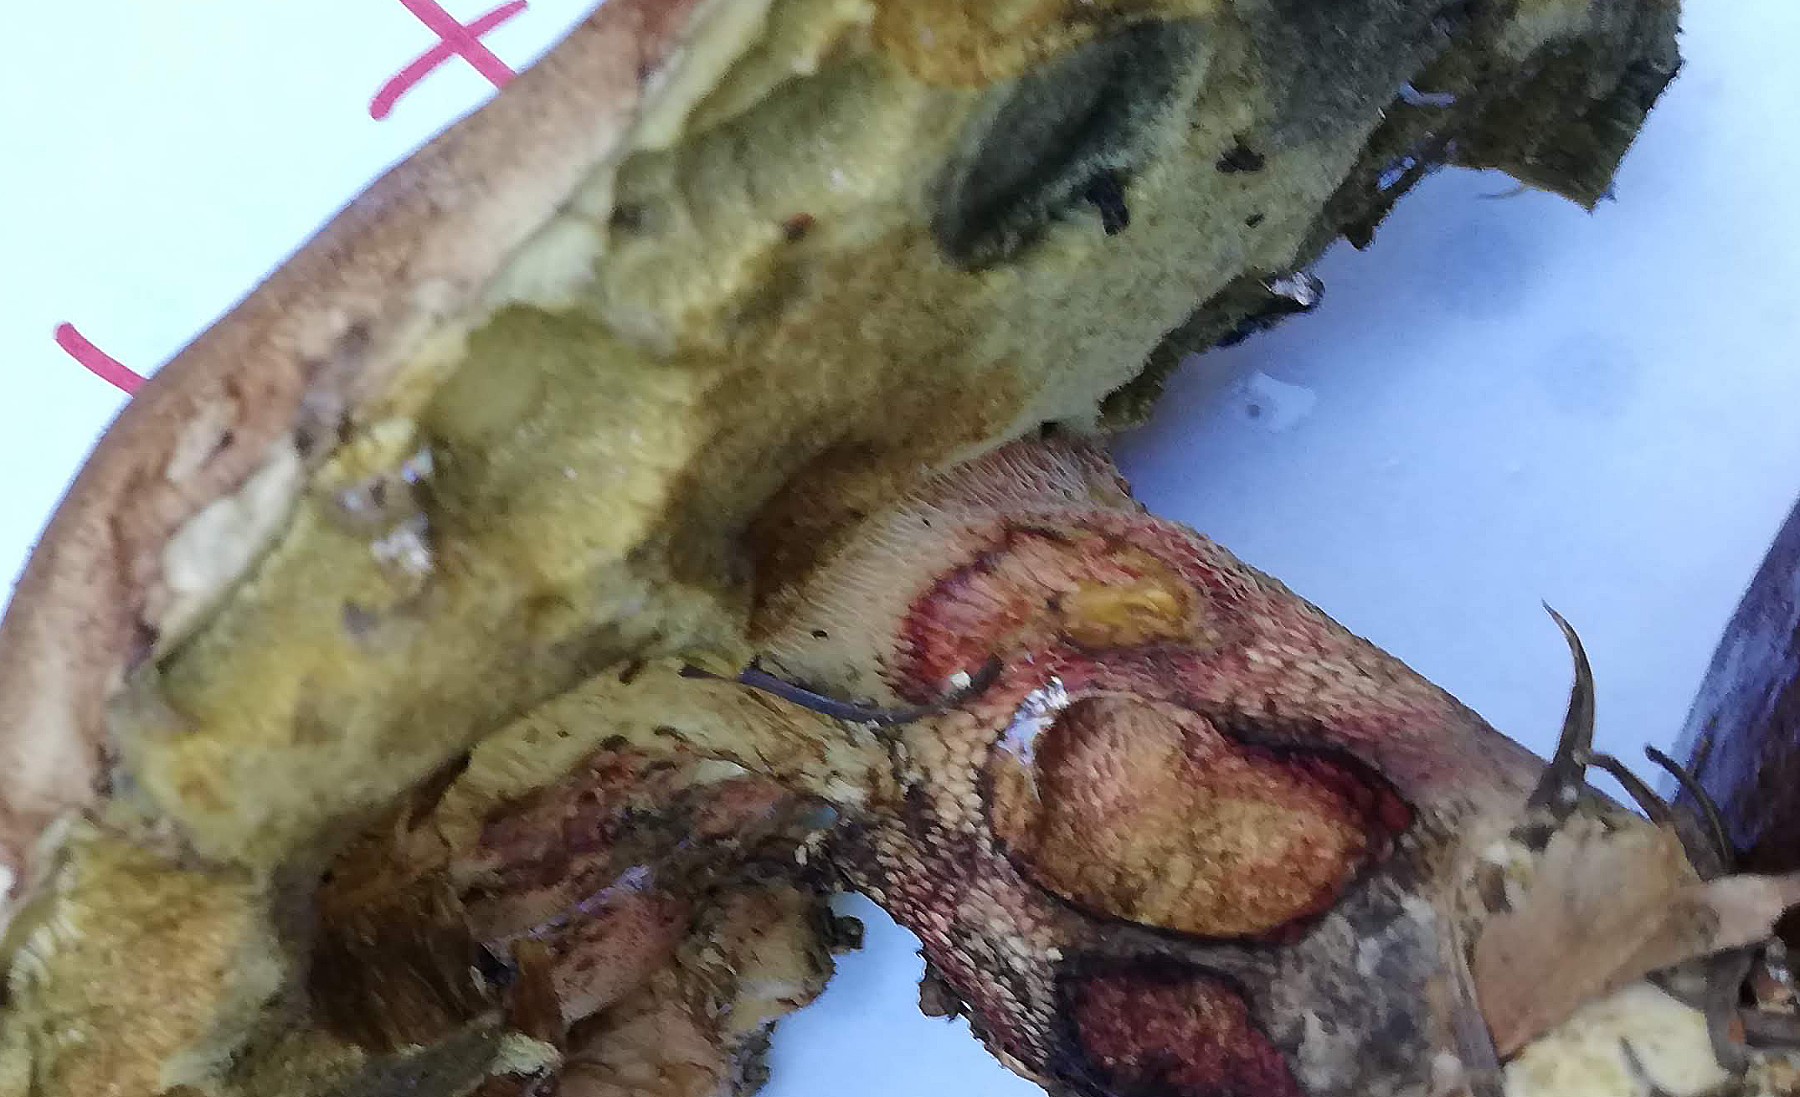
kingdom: Fungi
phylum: Basidiomycota
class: Agaricomycetes
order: Boletales
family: Boletaceae
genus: Caloboletus
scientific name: Caloboletus calopus
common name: skønfodet rørhat
